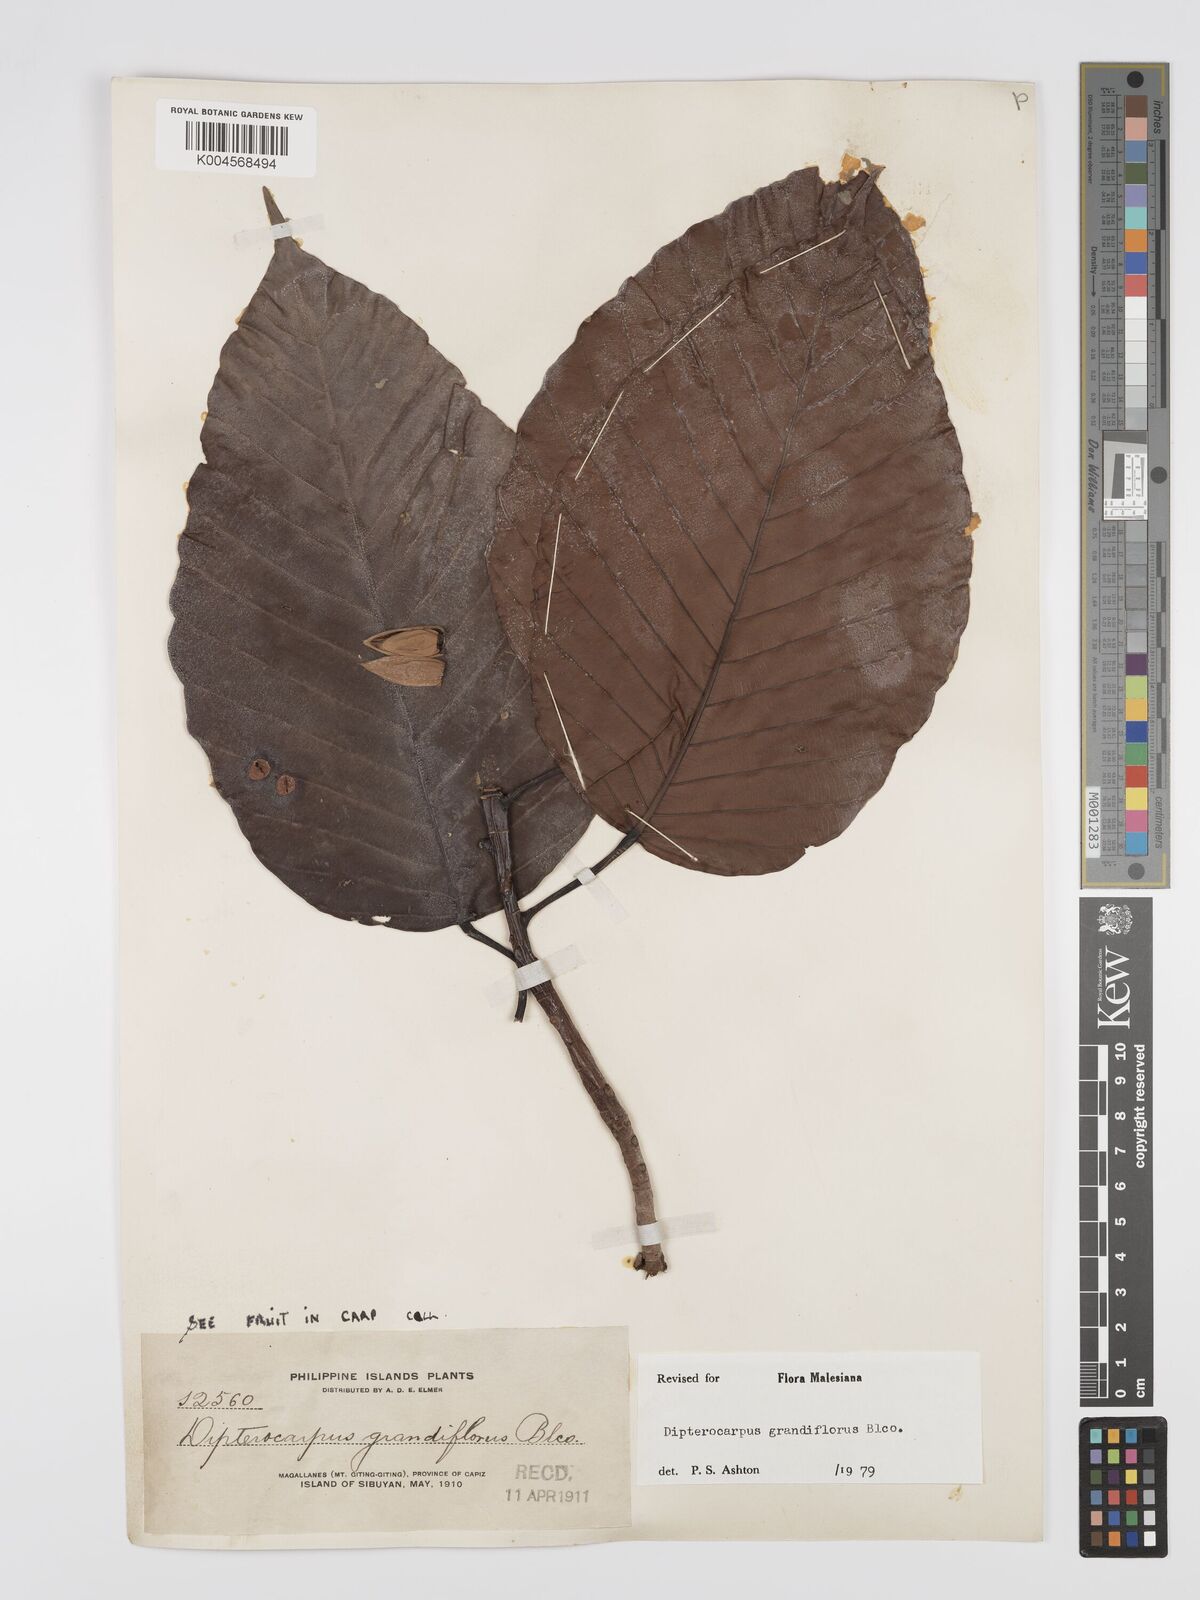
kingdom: Plantae
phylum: Tracheophyta
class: Magnoliopsida
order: Malvales
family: Dipterocarpaceae
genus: Dipterocarpus
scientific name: Dipterocarpus grandiflorus
